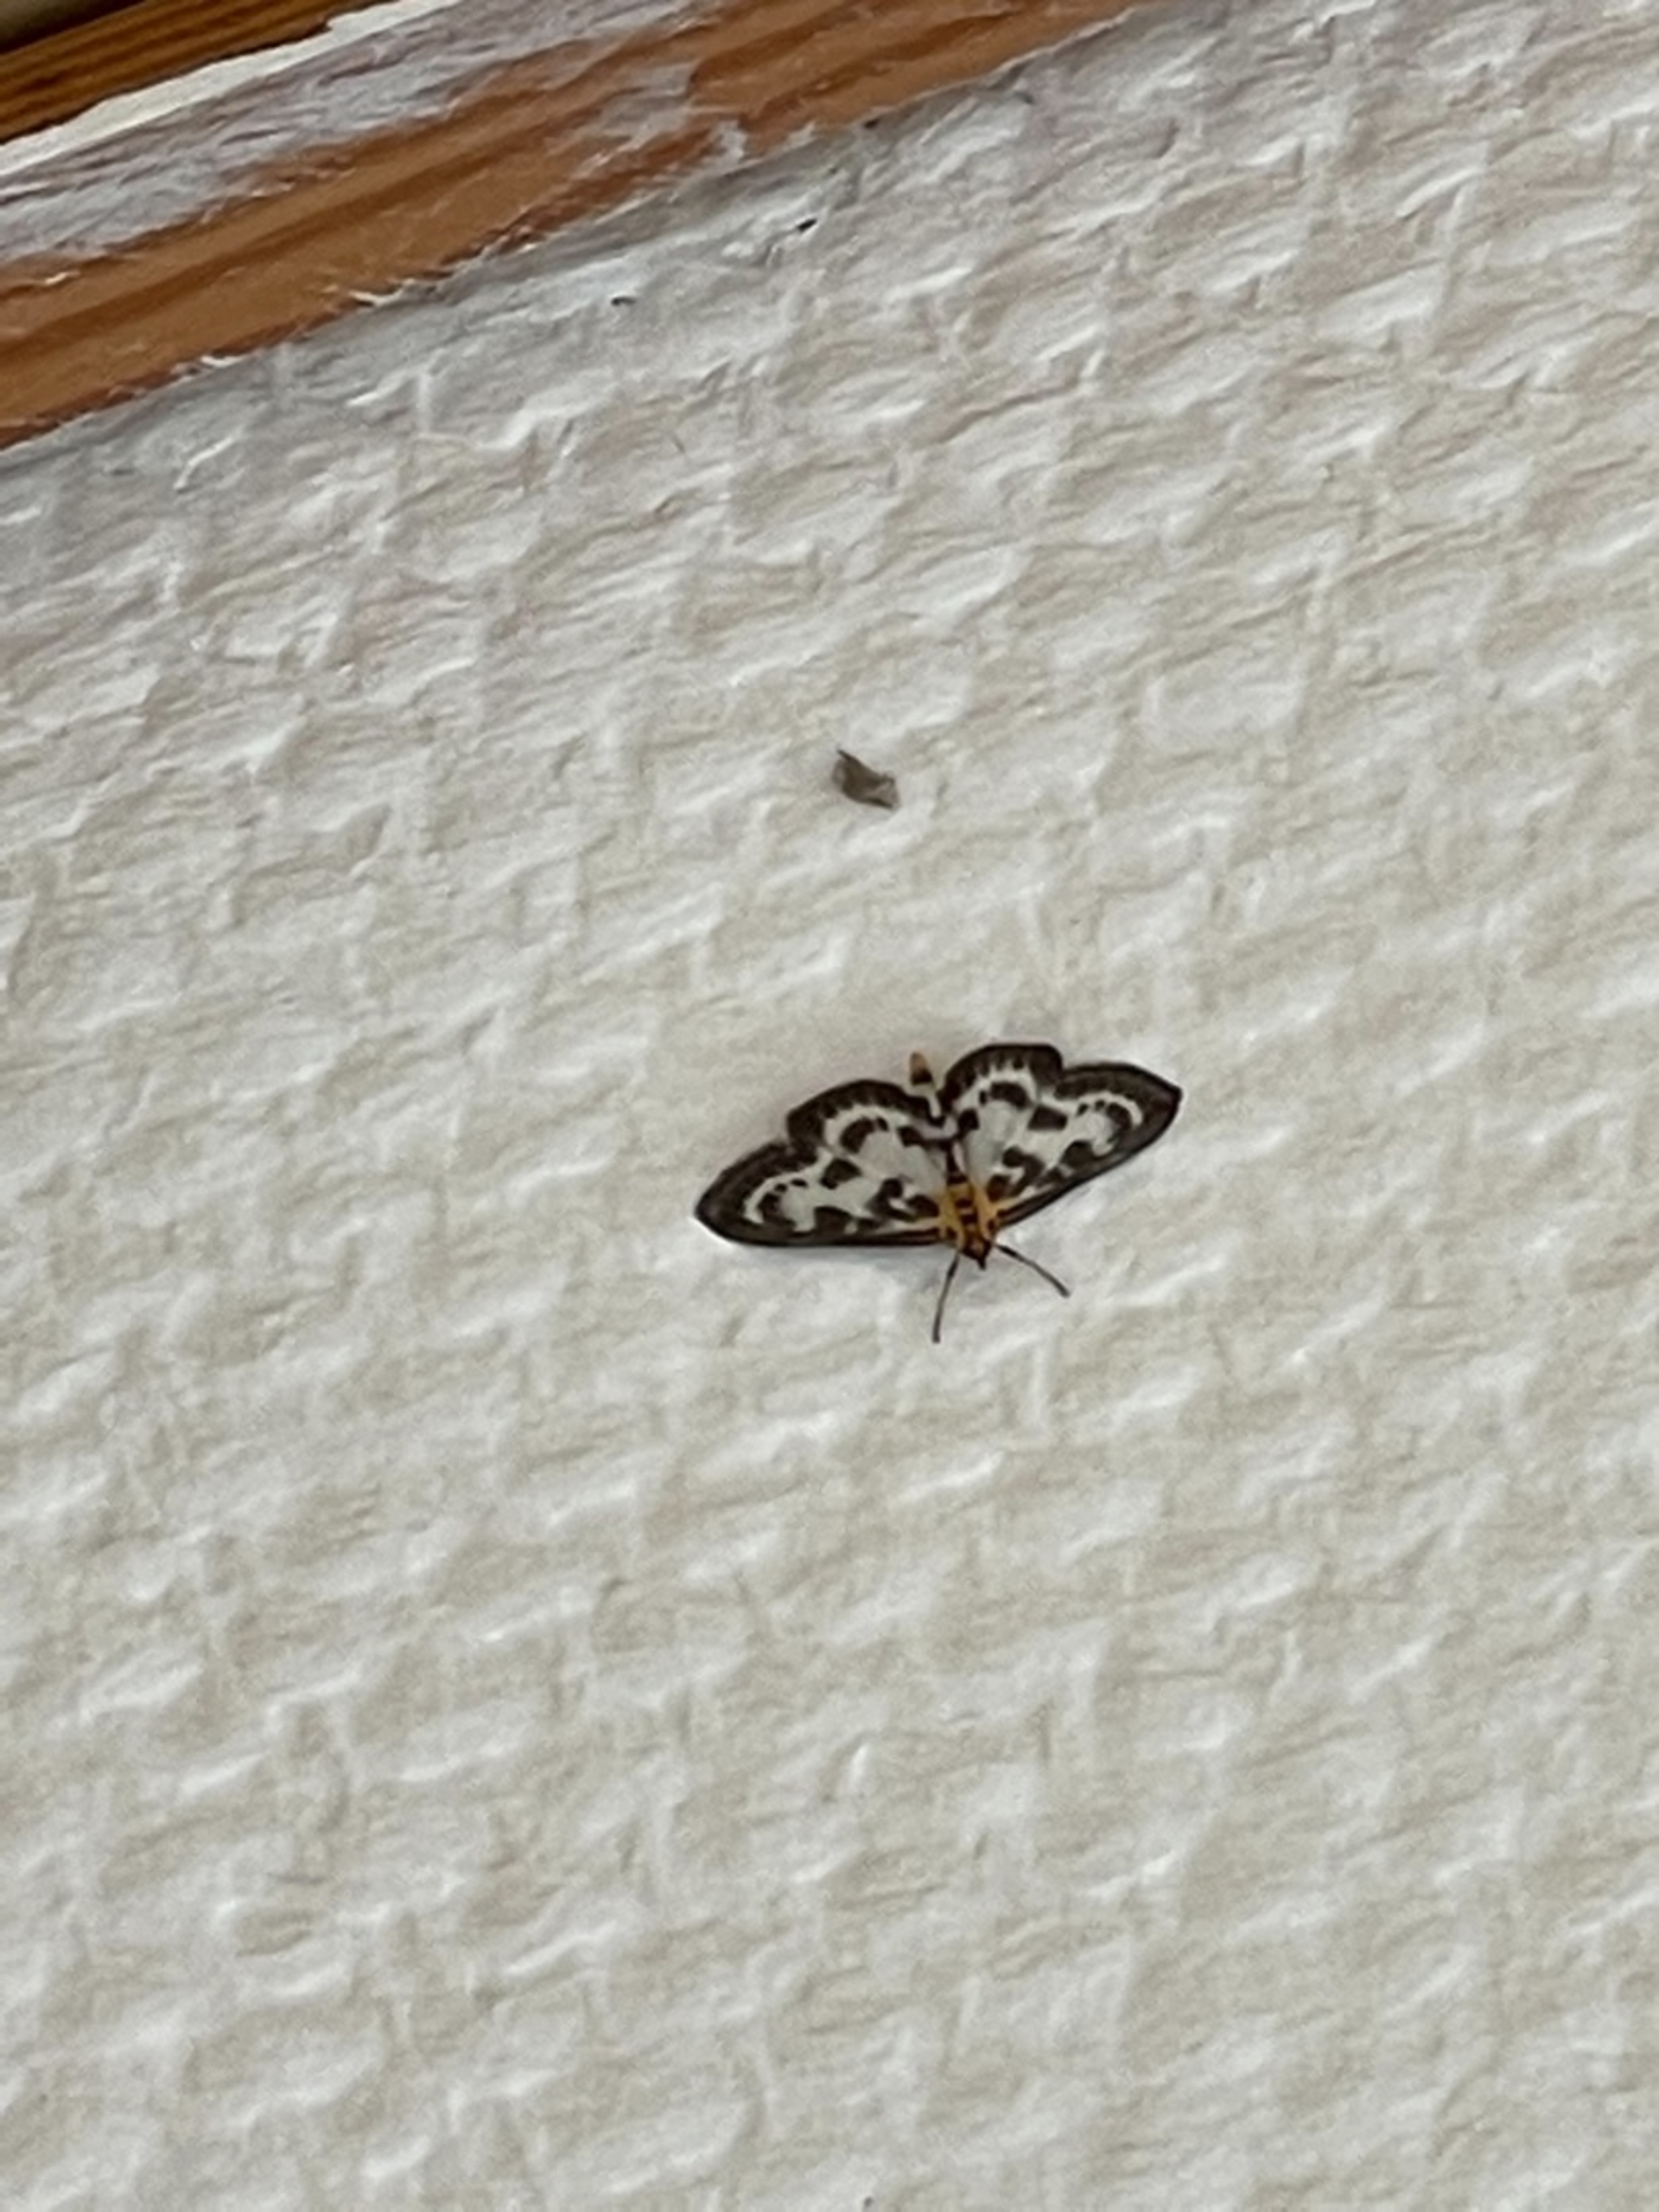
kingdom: Animalia
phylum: Arthropoda
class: Insecta
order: Lepidoptera
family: Crambidae
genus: Anania
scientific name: Anania hortulata
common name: Nældehalvmøl
